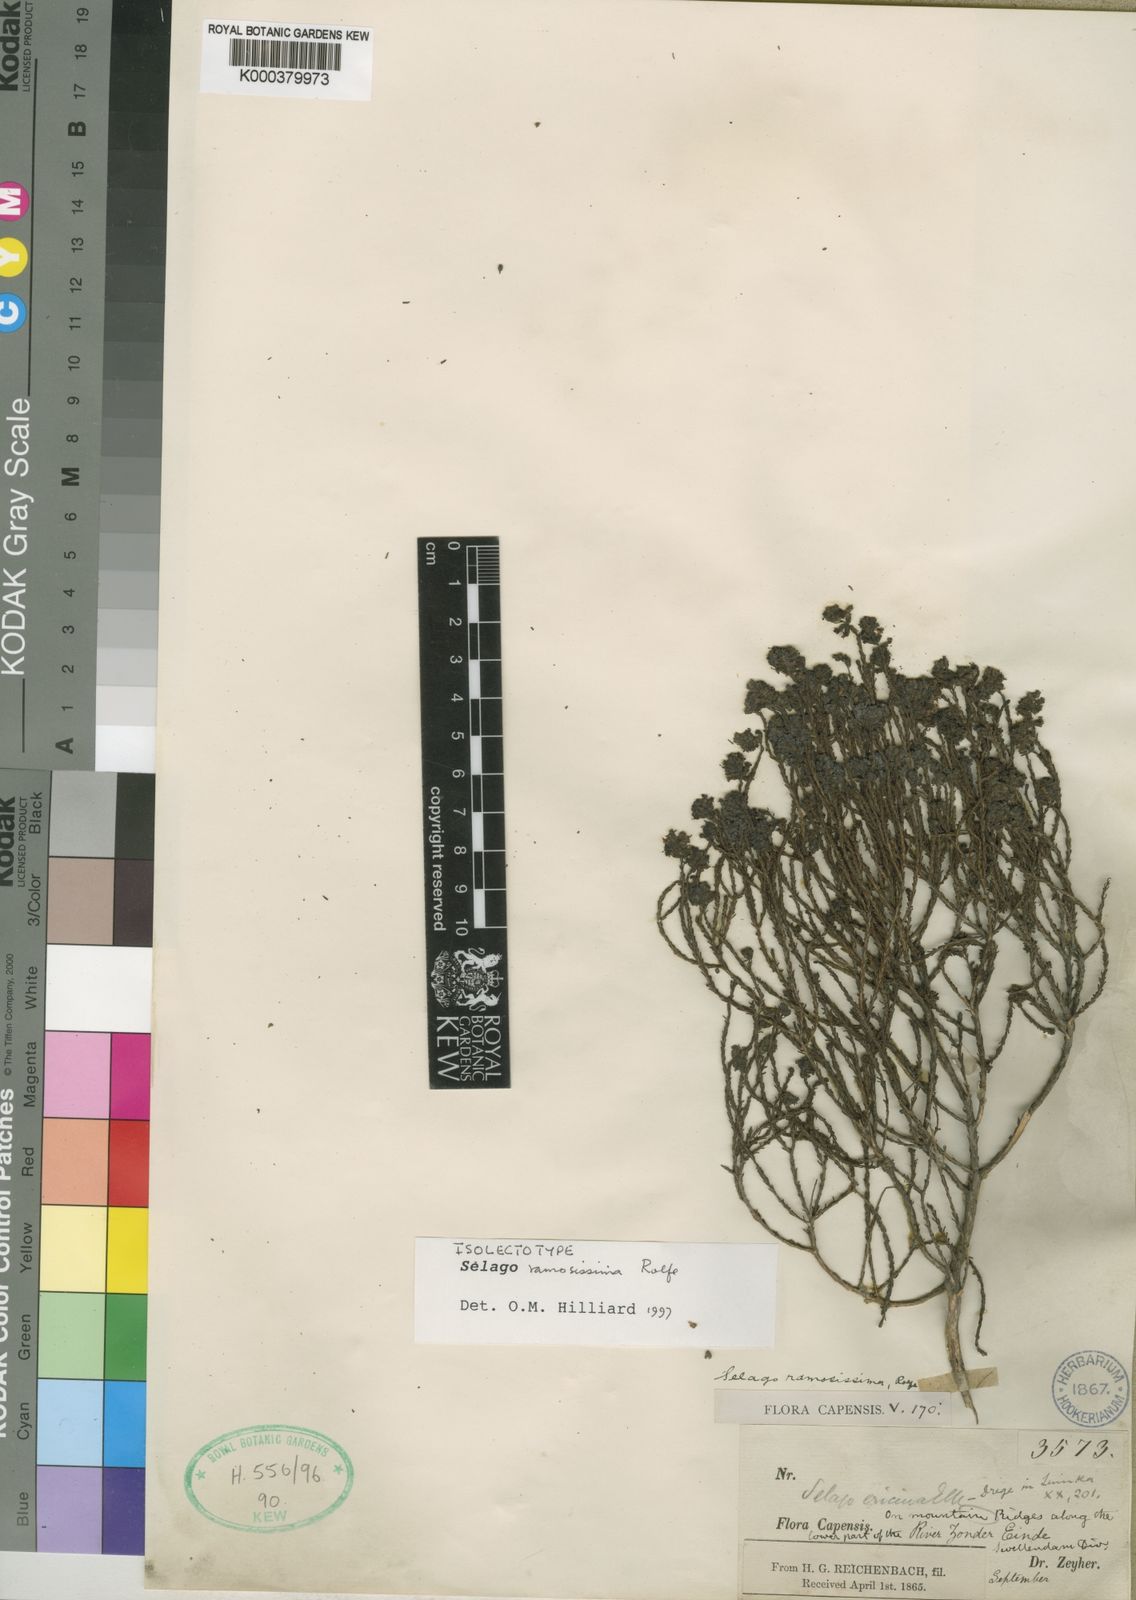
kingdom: Plantae
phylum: Tracheophyta
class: Magnoliopsida
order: Lamiales
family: Scrophulariaceae
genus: Selago
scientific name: Selago ramosissima
